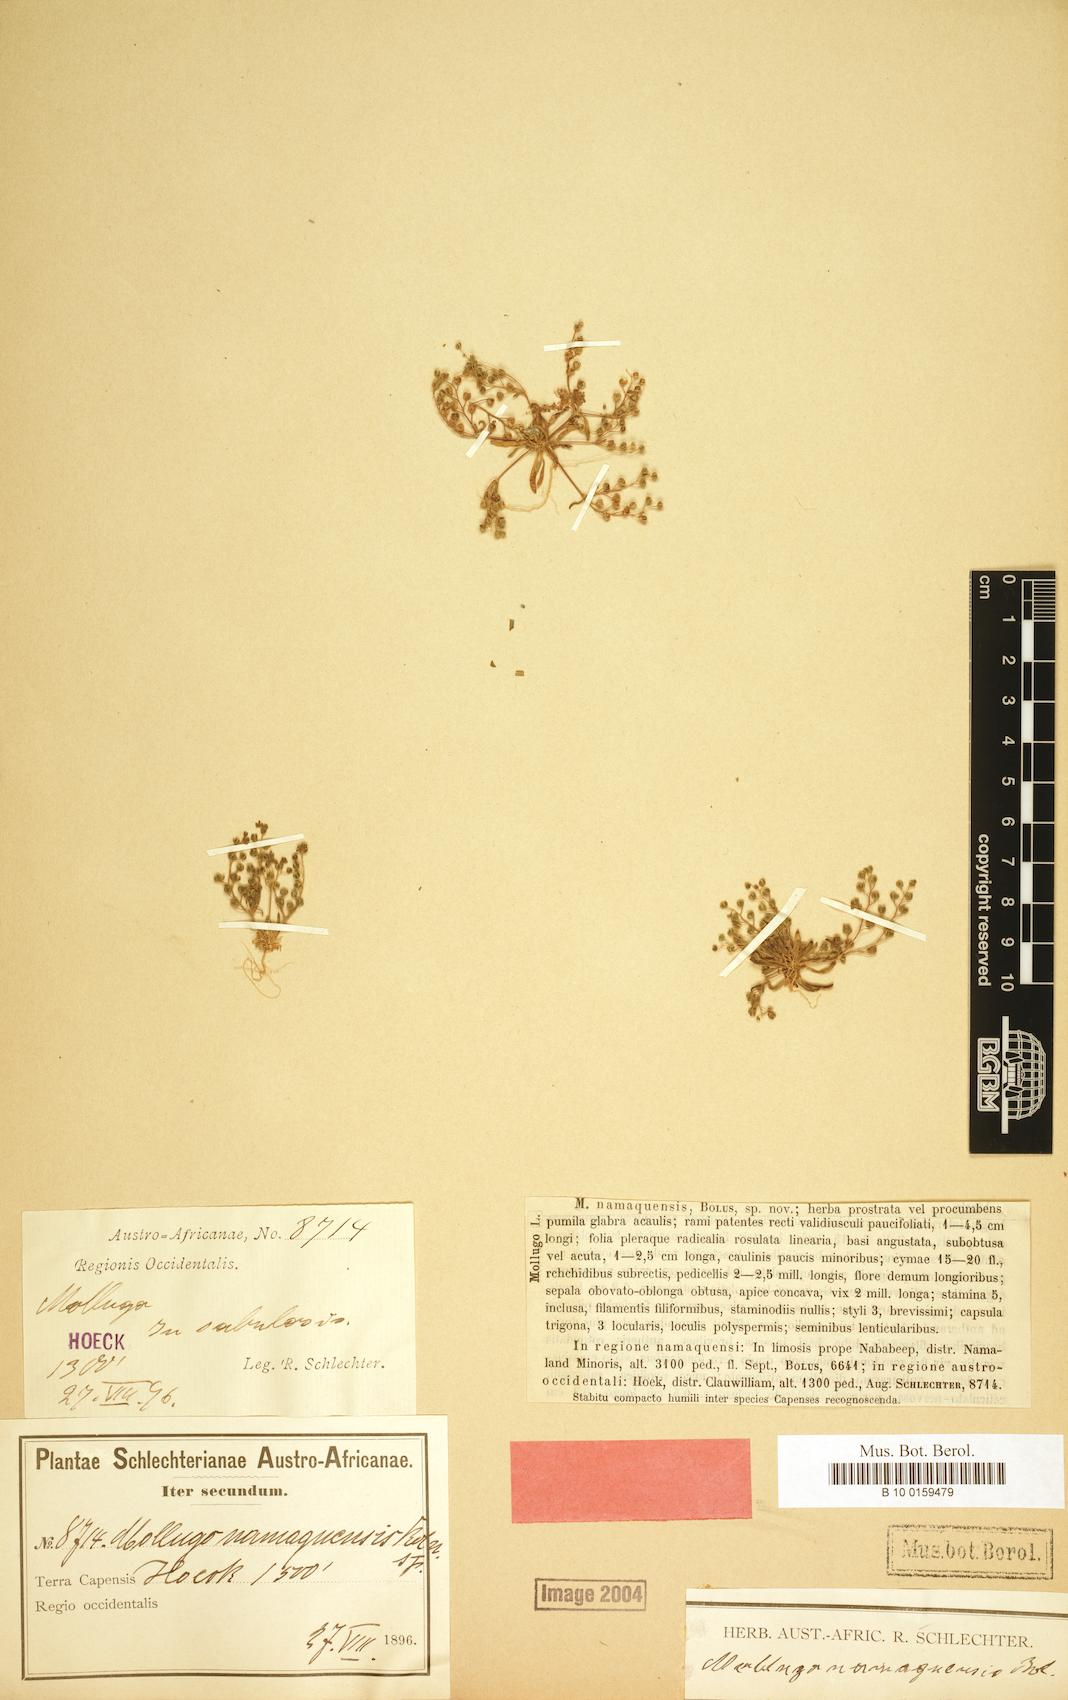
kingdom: Plantae
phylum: Tracheophyta
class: Magnoliopsida
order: Caryophyllales
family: Molluginaceae
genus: Mollugo
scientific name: Mollugo namaquensis
